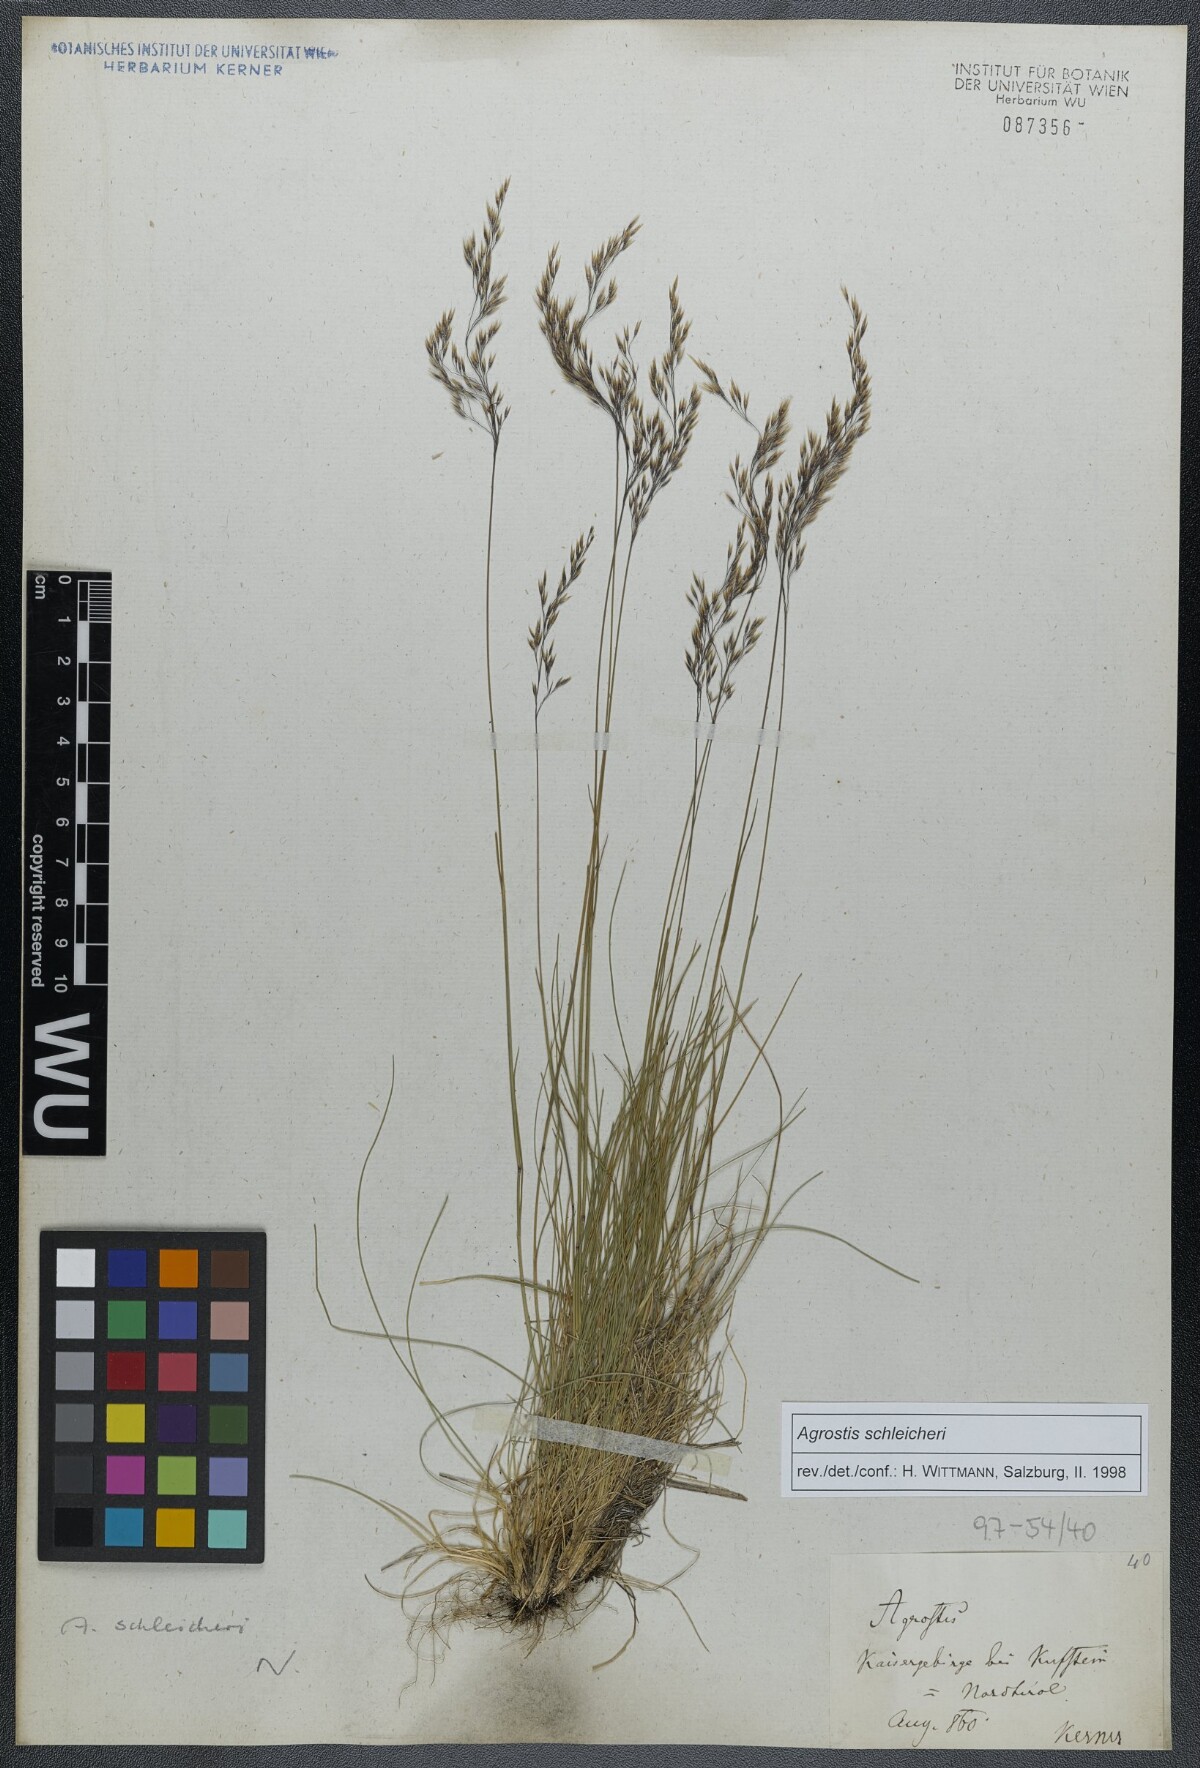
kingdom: Plantae
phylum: Tracheophyta
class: Liliopsida
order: Poales
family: Poaceae
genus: Alpagrostis
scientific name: Alpagrostis schleicheri
